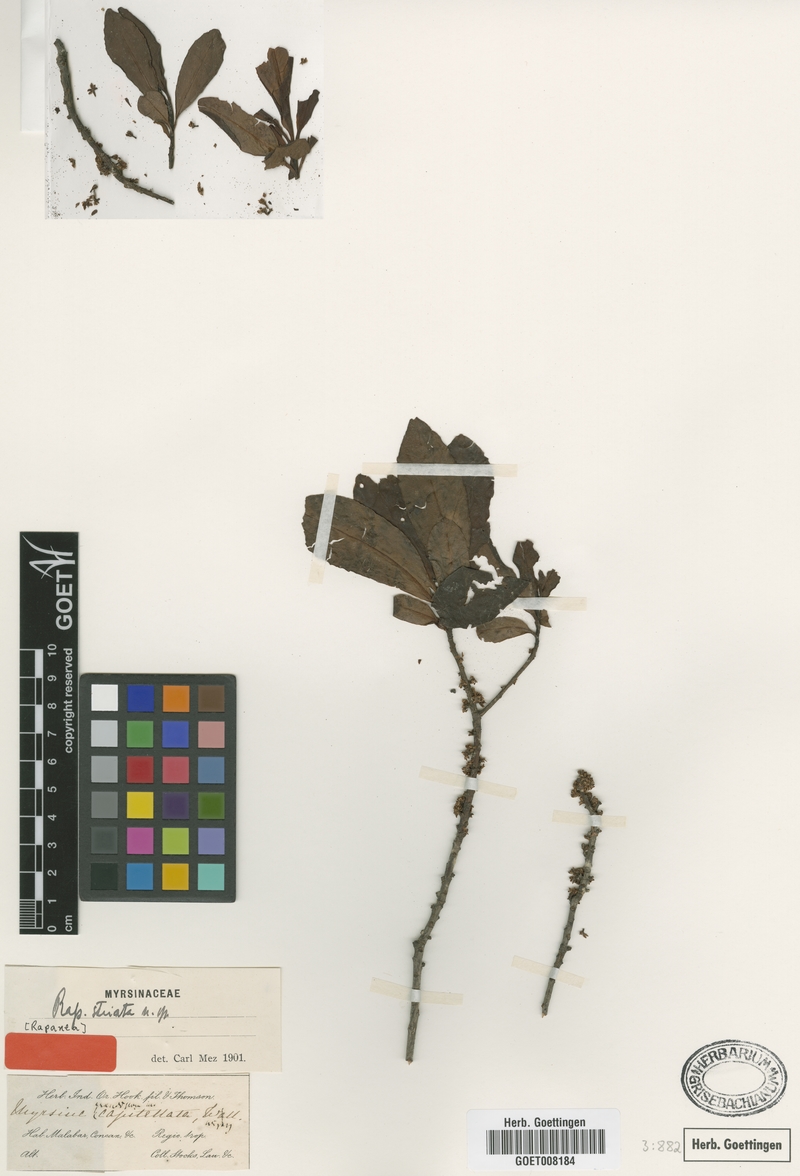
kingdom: Plantae
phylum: Tracheophyta
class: Magnoliopsida
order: Ericales
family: Primulaceae
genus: Myrsine
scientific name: Myrsine striata
